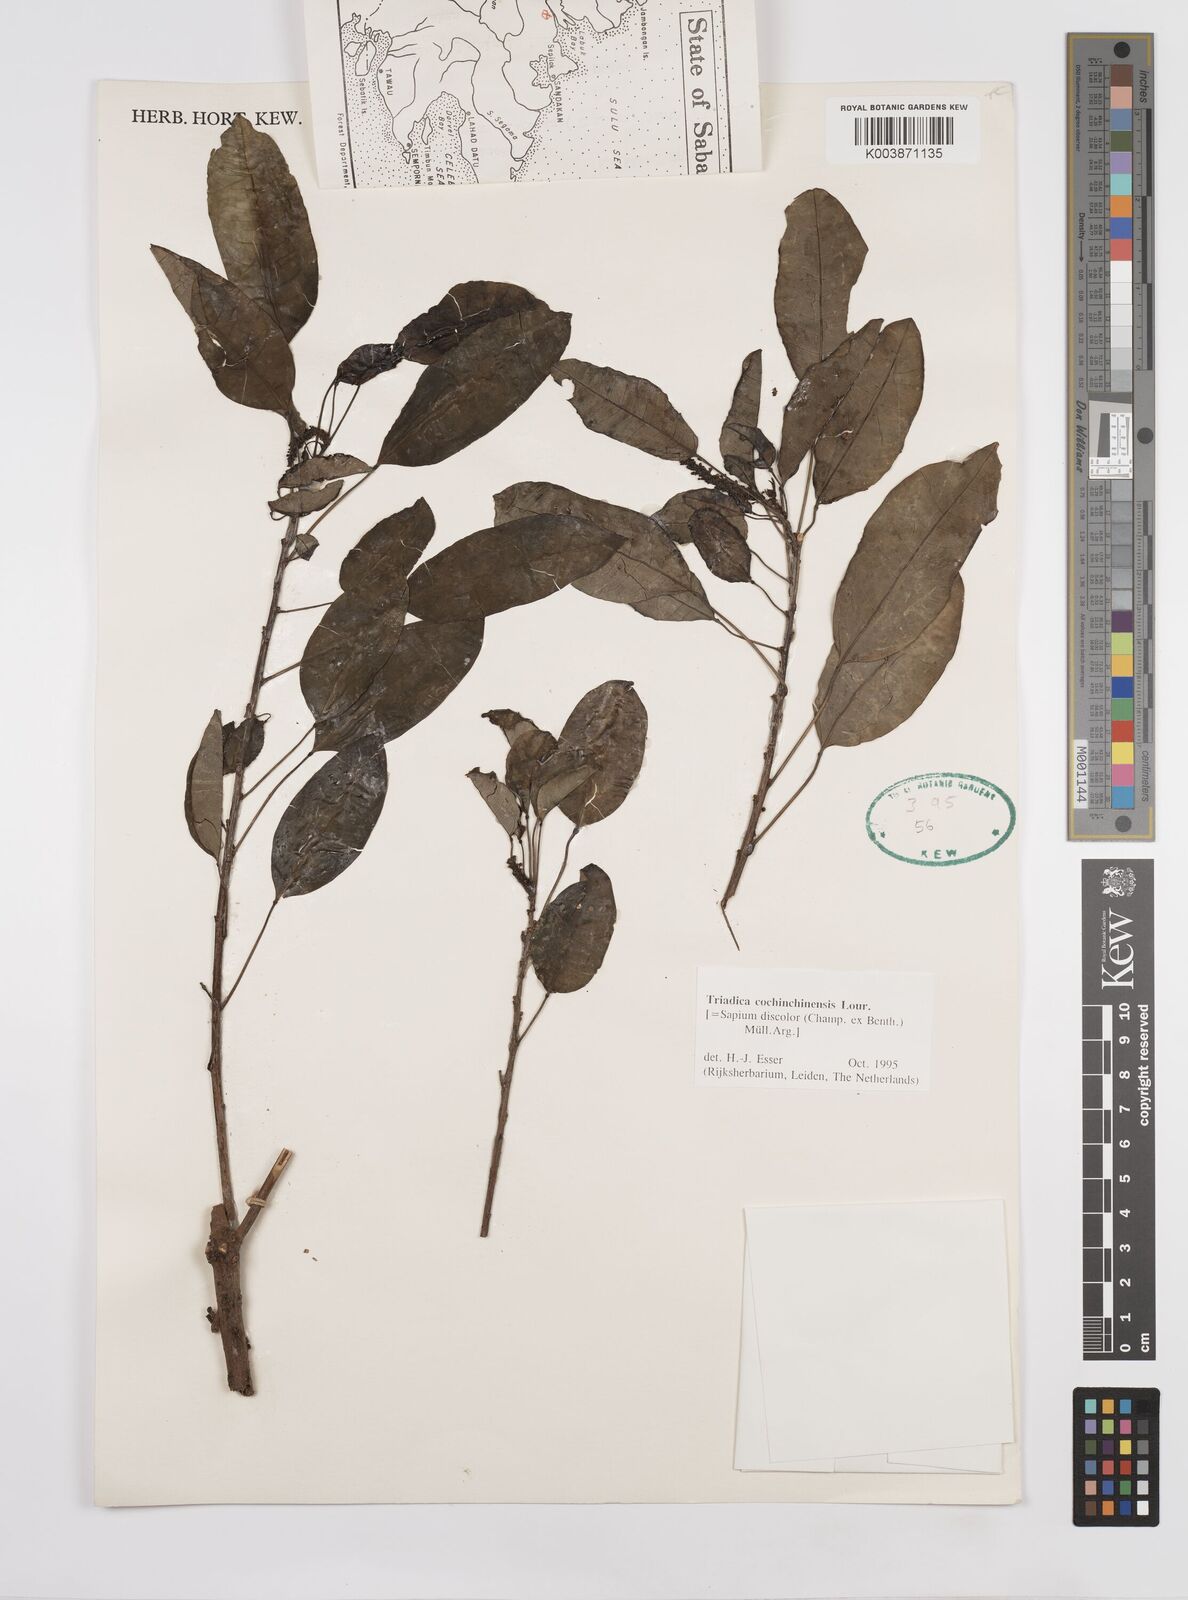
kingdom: Plantae
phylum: Tracheophyta
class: Magnoliopsida
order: Malpighiales
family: Euphorbiaceae
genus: Triadica
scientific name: Triadica cochinchinensis
